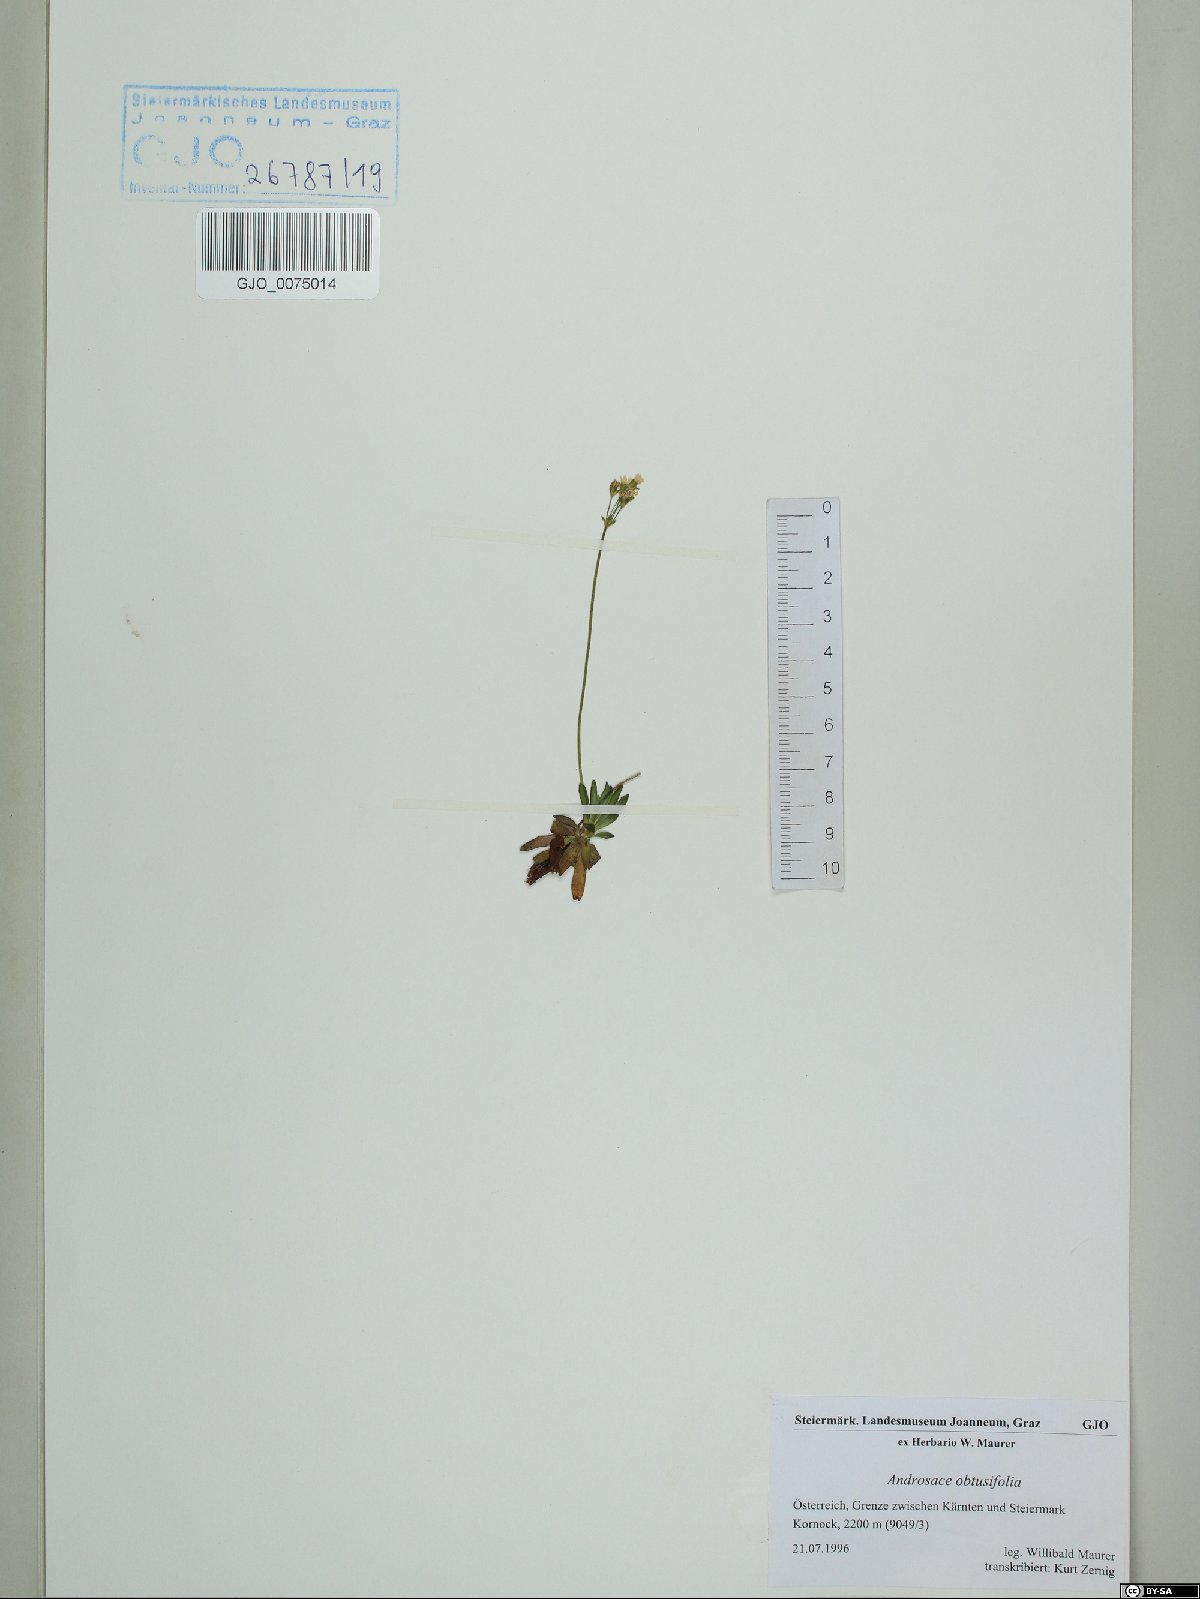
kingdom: Plantae
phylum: Tracheophyta
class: Magnoliopsida
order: Ericales
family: Primulaceae
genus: Androsace
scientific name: Androsace obtusifolia
